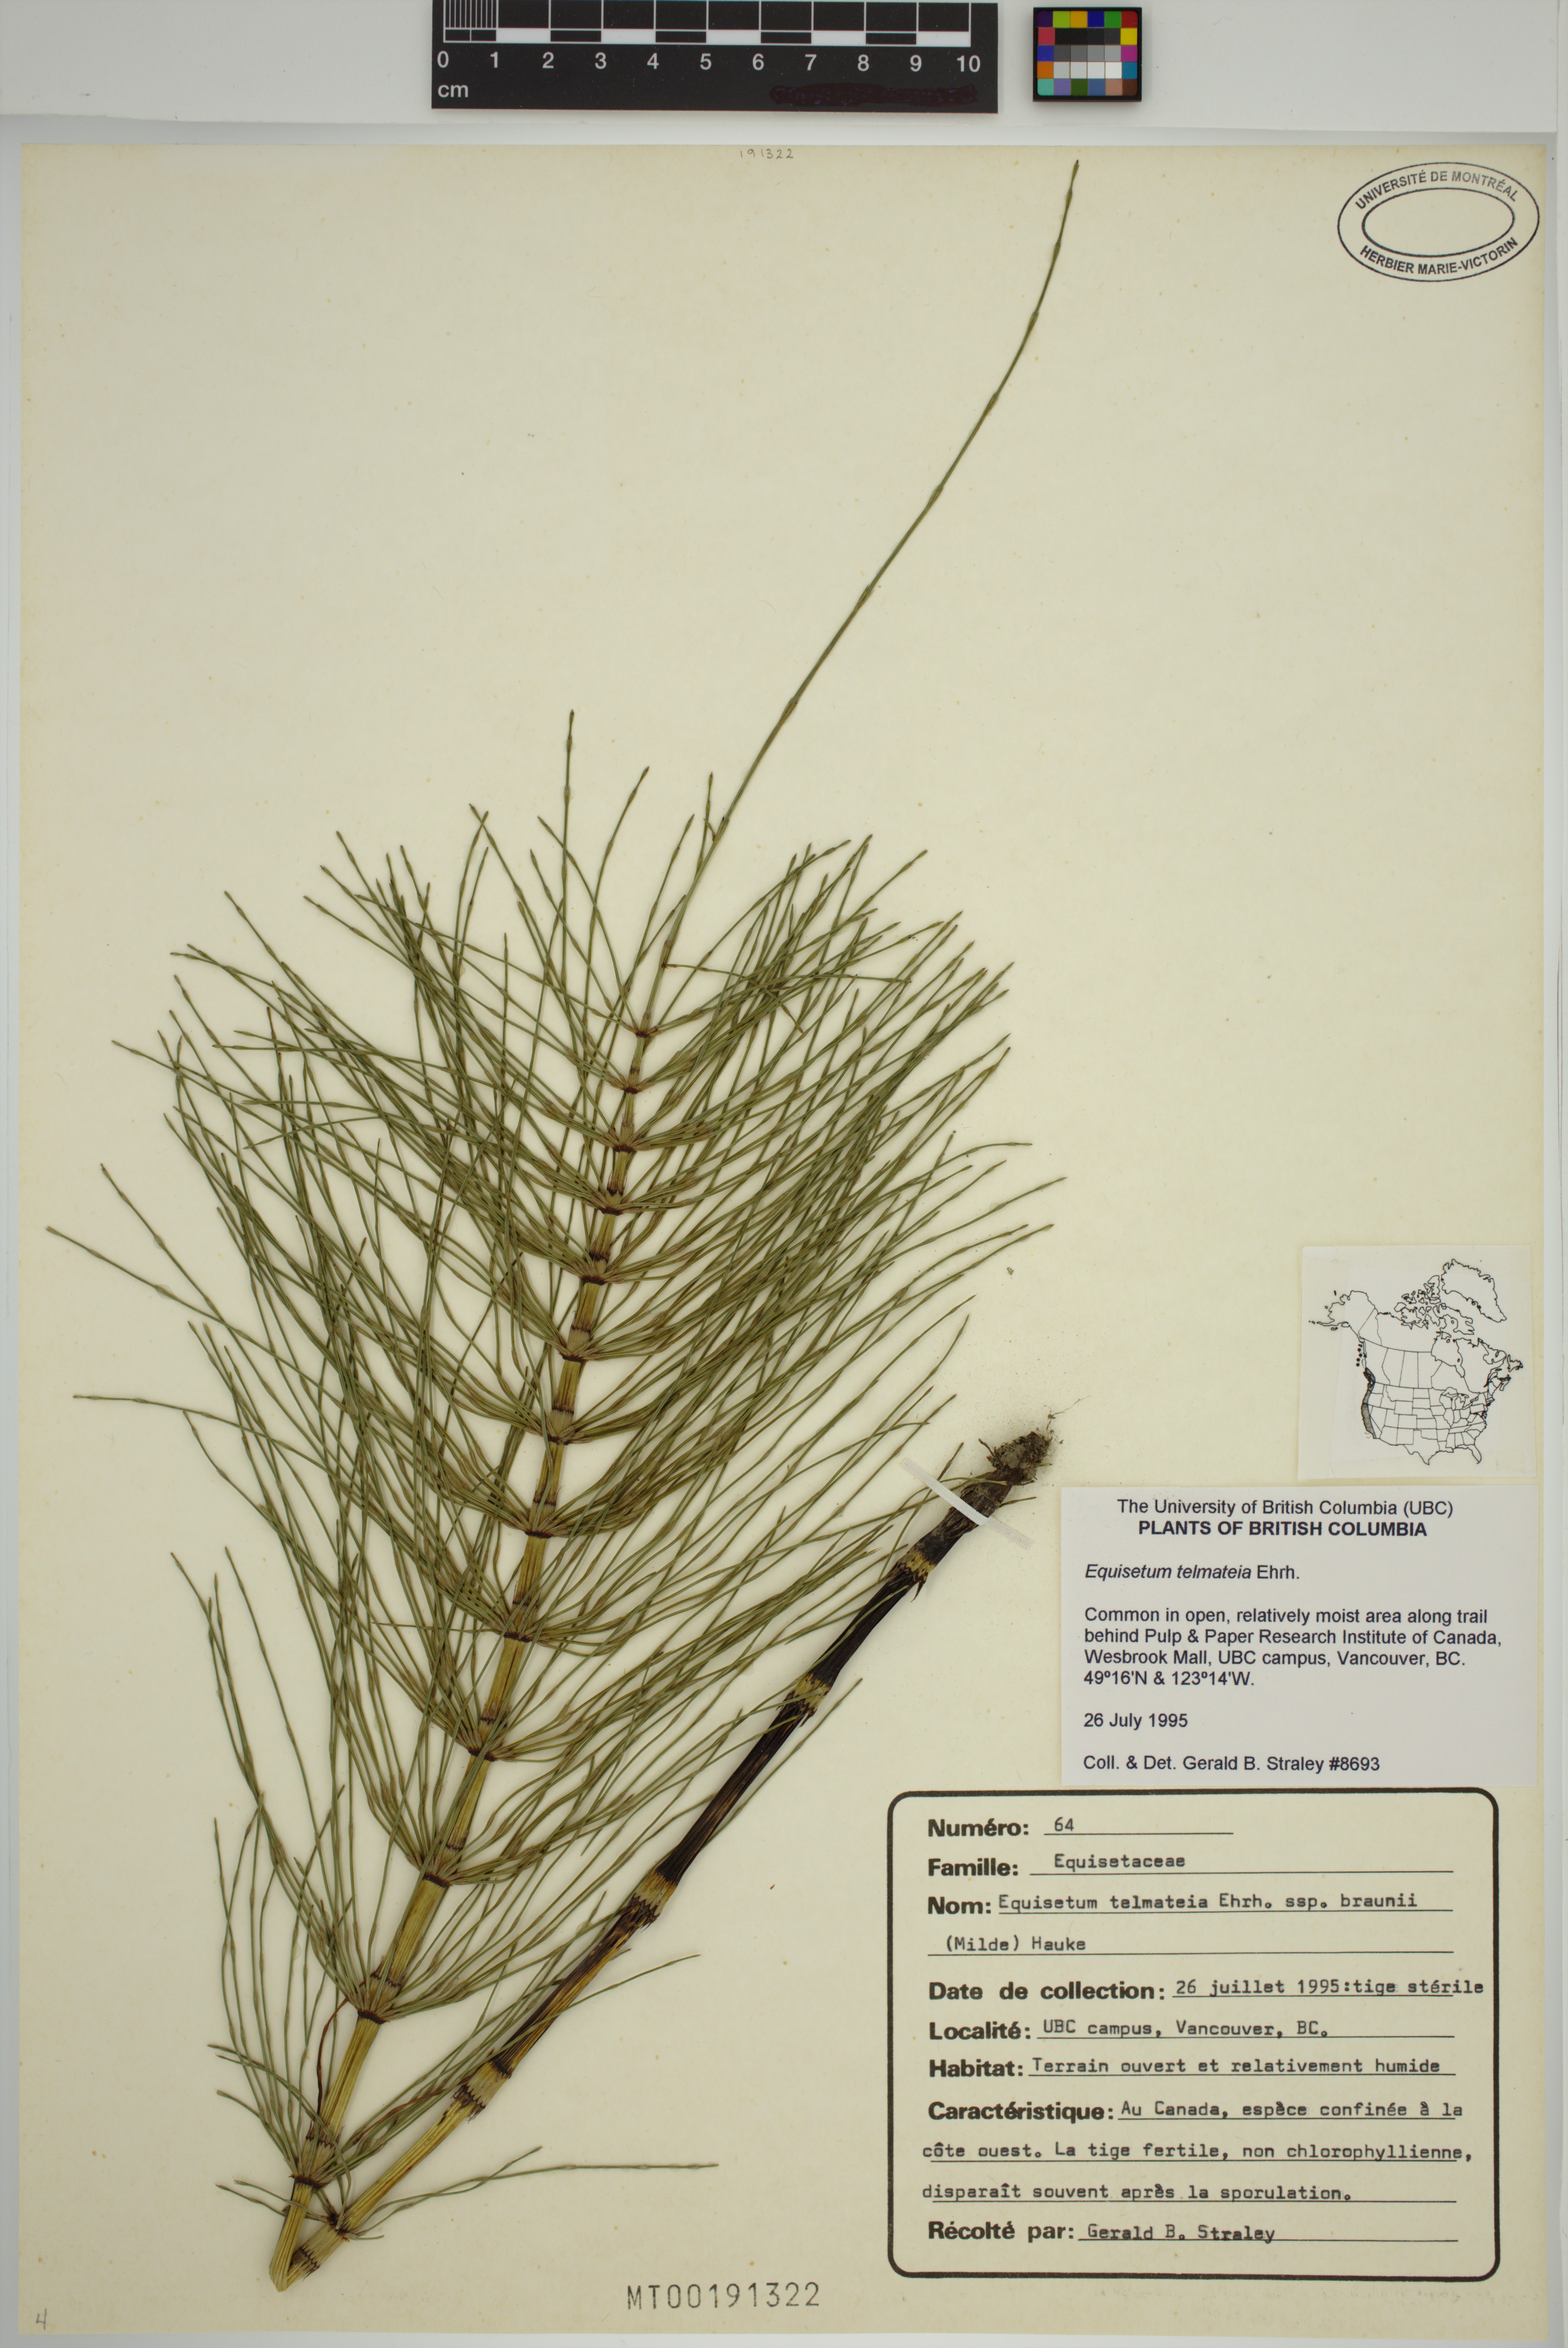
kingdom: Plantae
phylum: Tracheophyta
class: Polypodiopsida
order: Equisetales
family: Equisetaceae
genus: Equisetum
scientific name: Equisetum braunii
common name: Braun's horsetail
